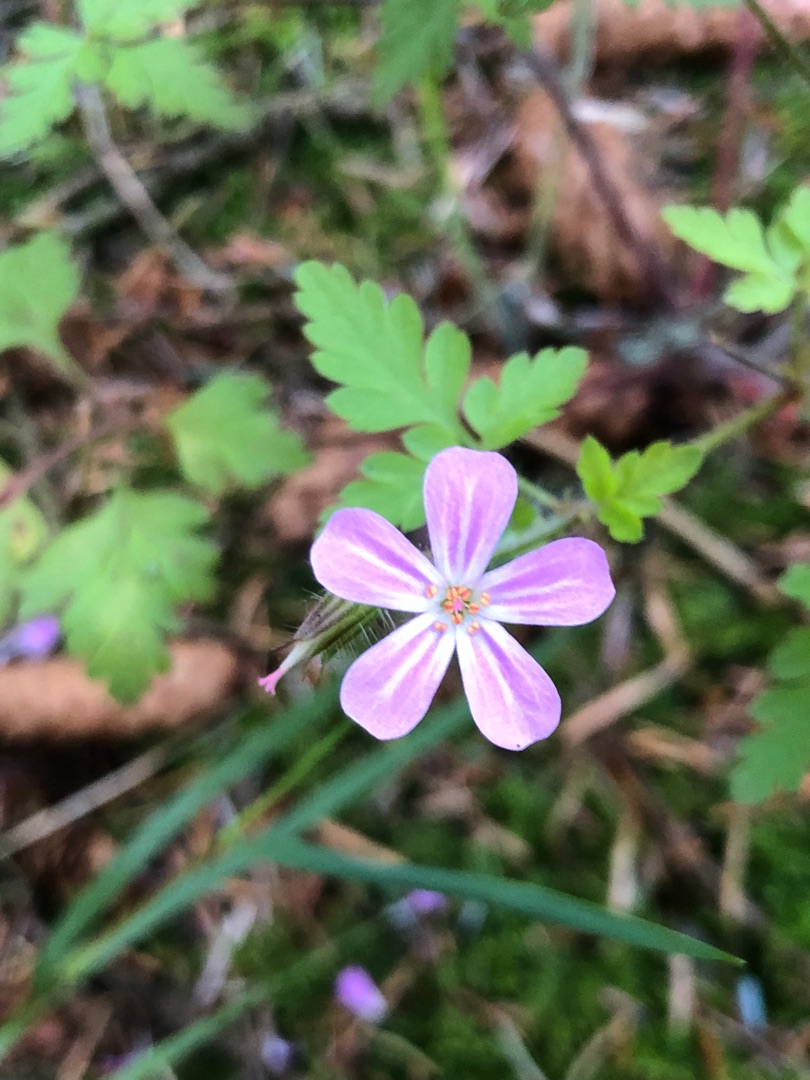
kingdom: Plantae
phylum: Tracheophyta
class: Magnoliopsida
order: Geraniales
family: Geraniaceae
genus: Geranium
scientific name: Geranium robertianum
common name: Stinkende storkenæb
